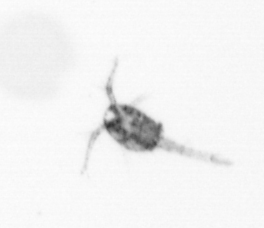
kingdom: Animalia
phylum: Arthropoda
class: Copepoda
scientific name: Copepoda
